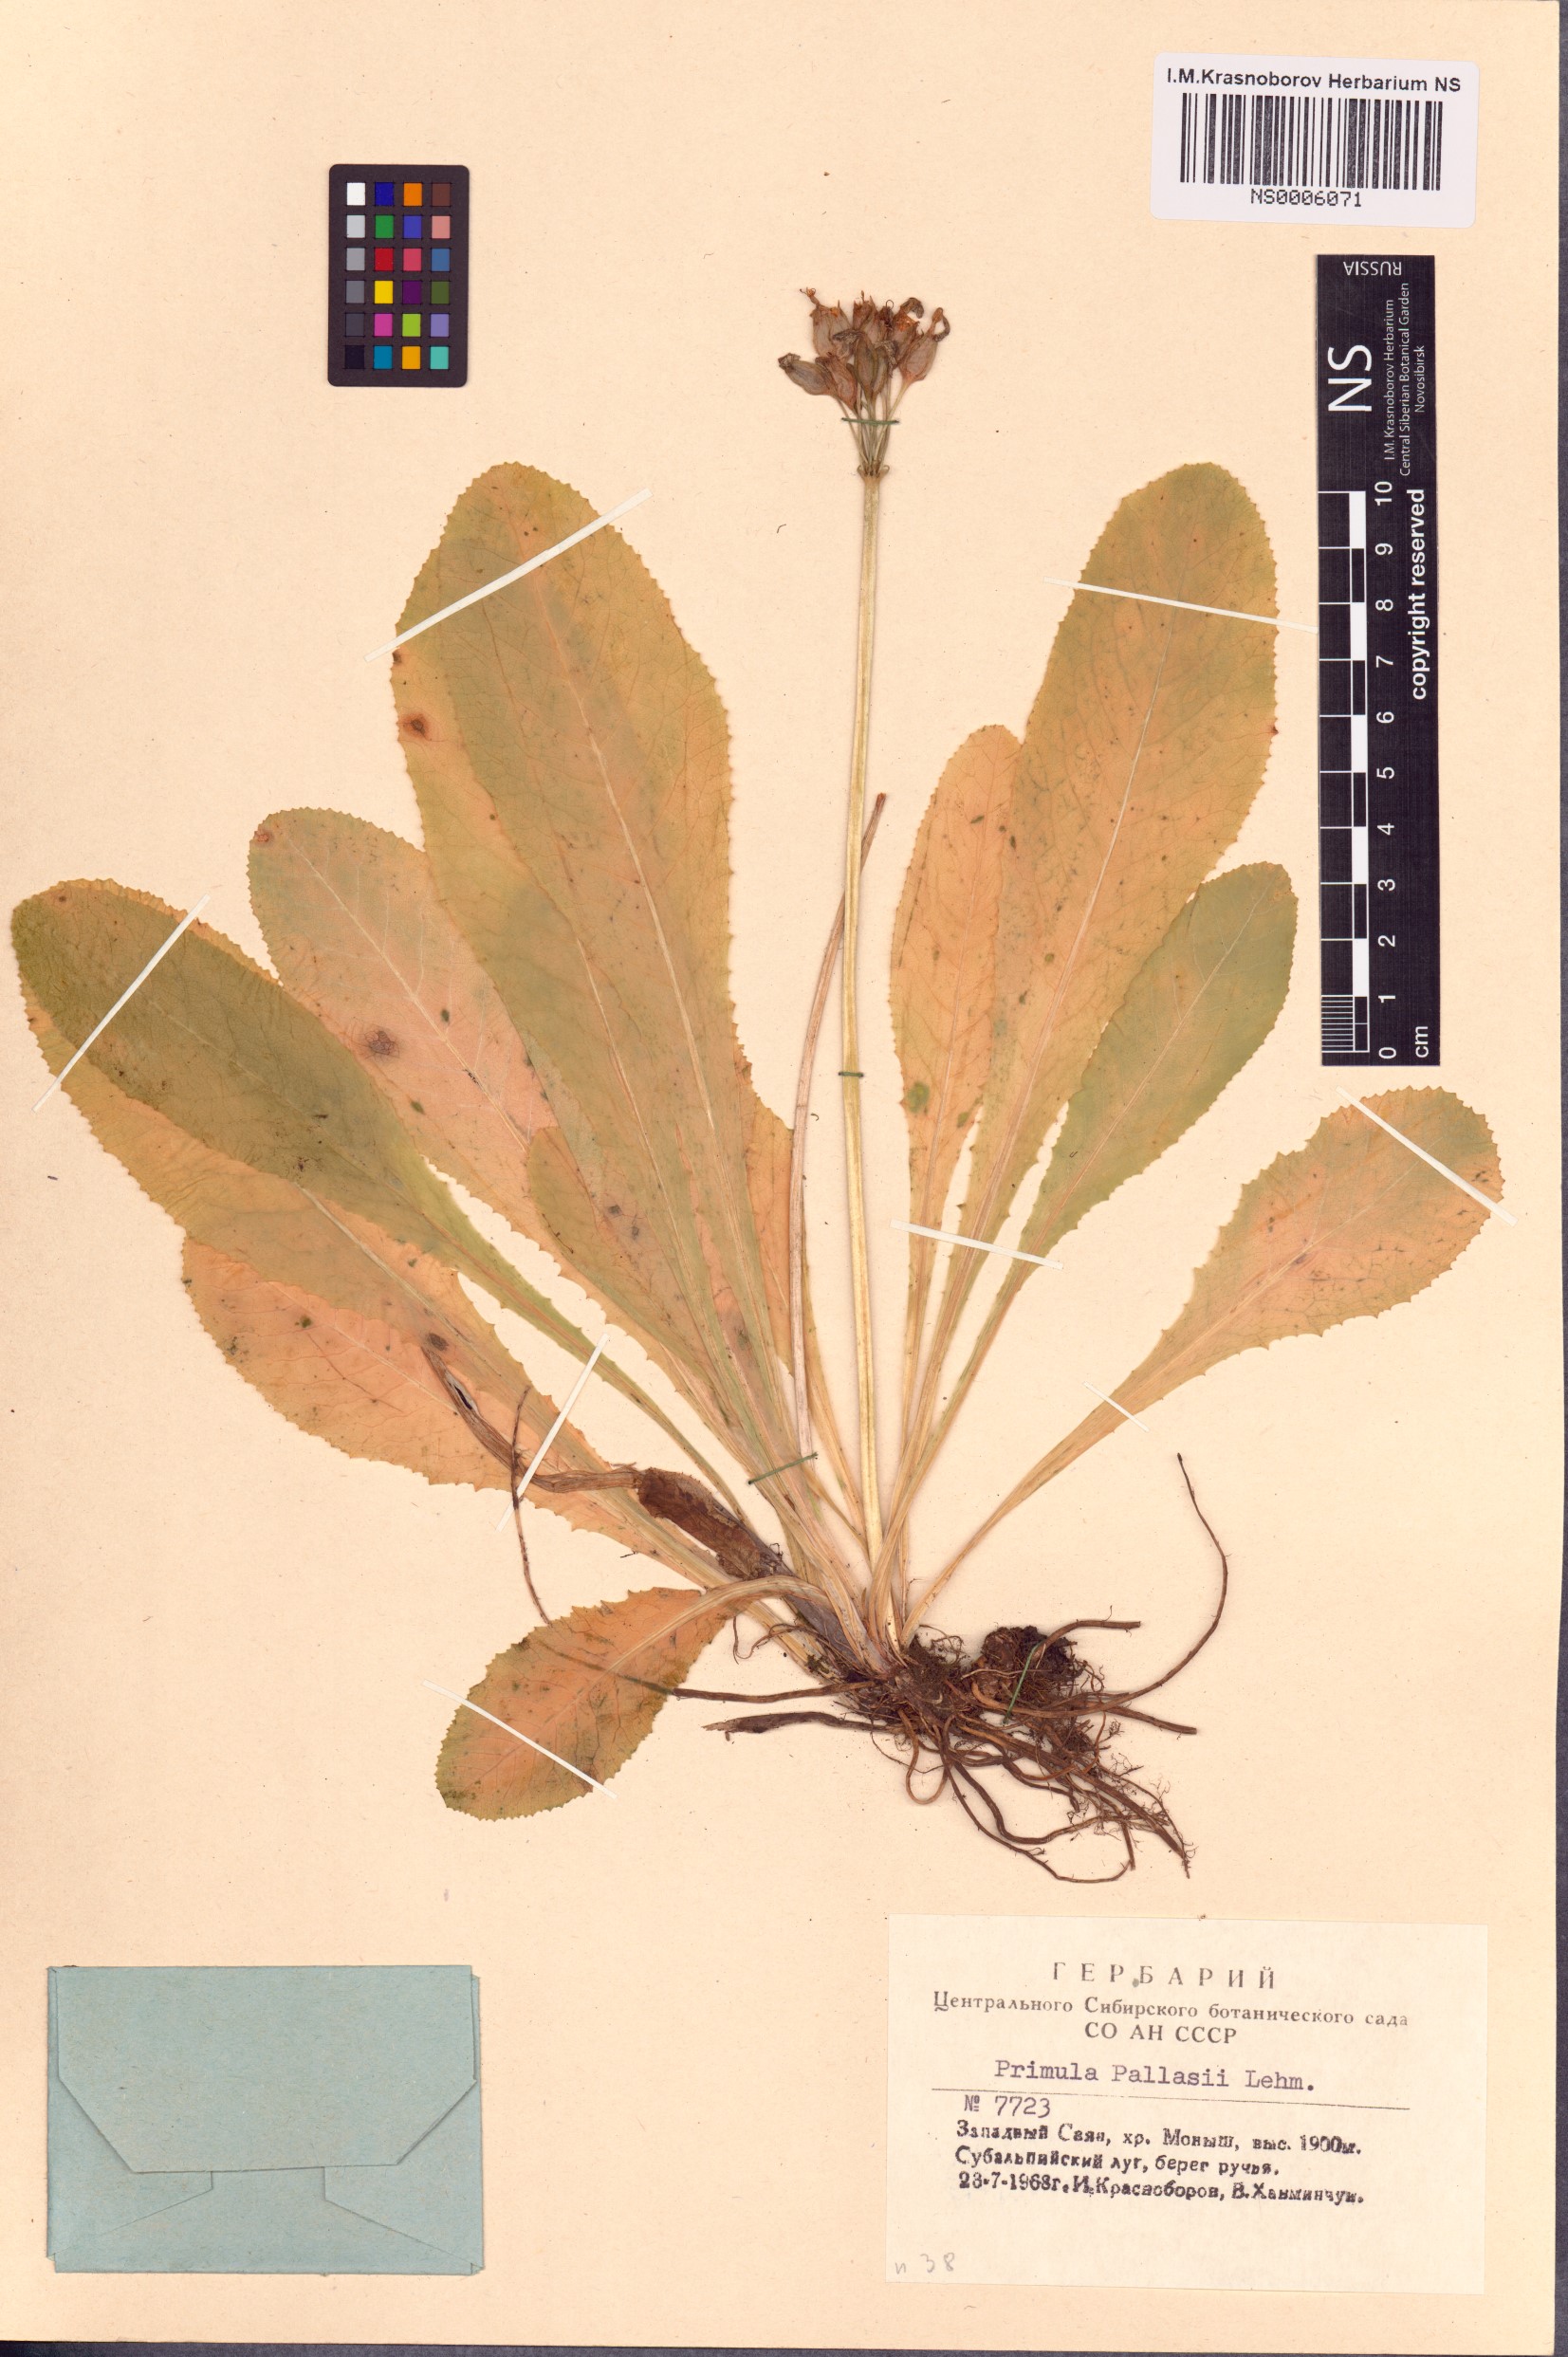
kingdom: Plantae
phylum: Tracheophyta
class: Magnoliopsida
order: Ericales
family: Primulaceae
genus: Primula
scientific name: Primula elatior
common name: Oxlip
